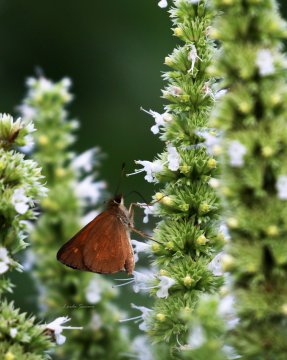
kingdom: Animalia
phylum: Arthropoda
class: Insecta
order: Lepidoptera
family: Hesperiidae
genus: Poanes
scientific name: Poanes viator
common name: Broad-winged Skipper
